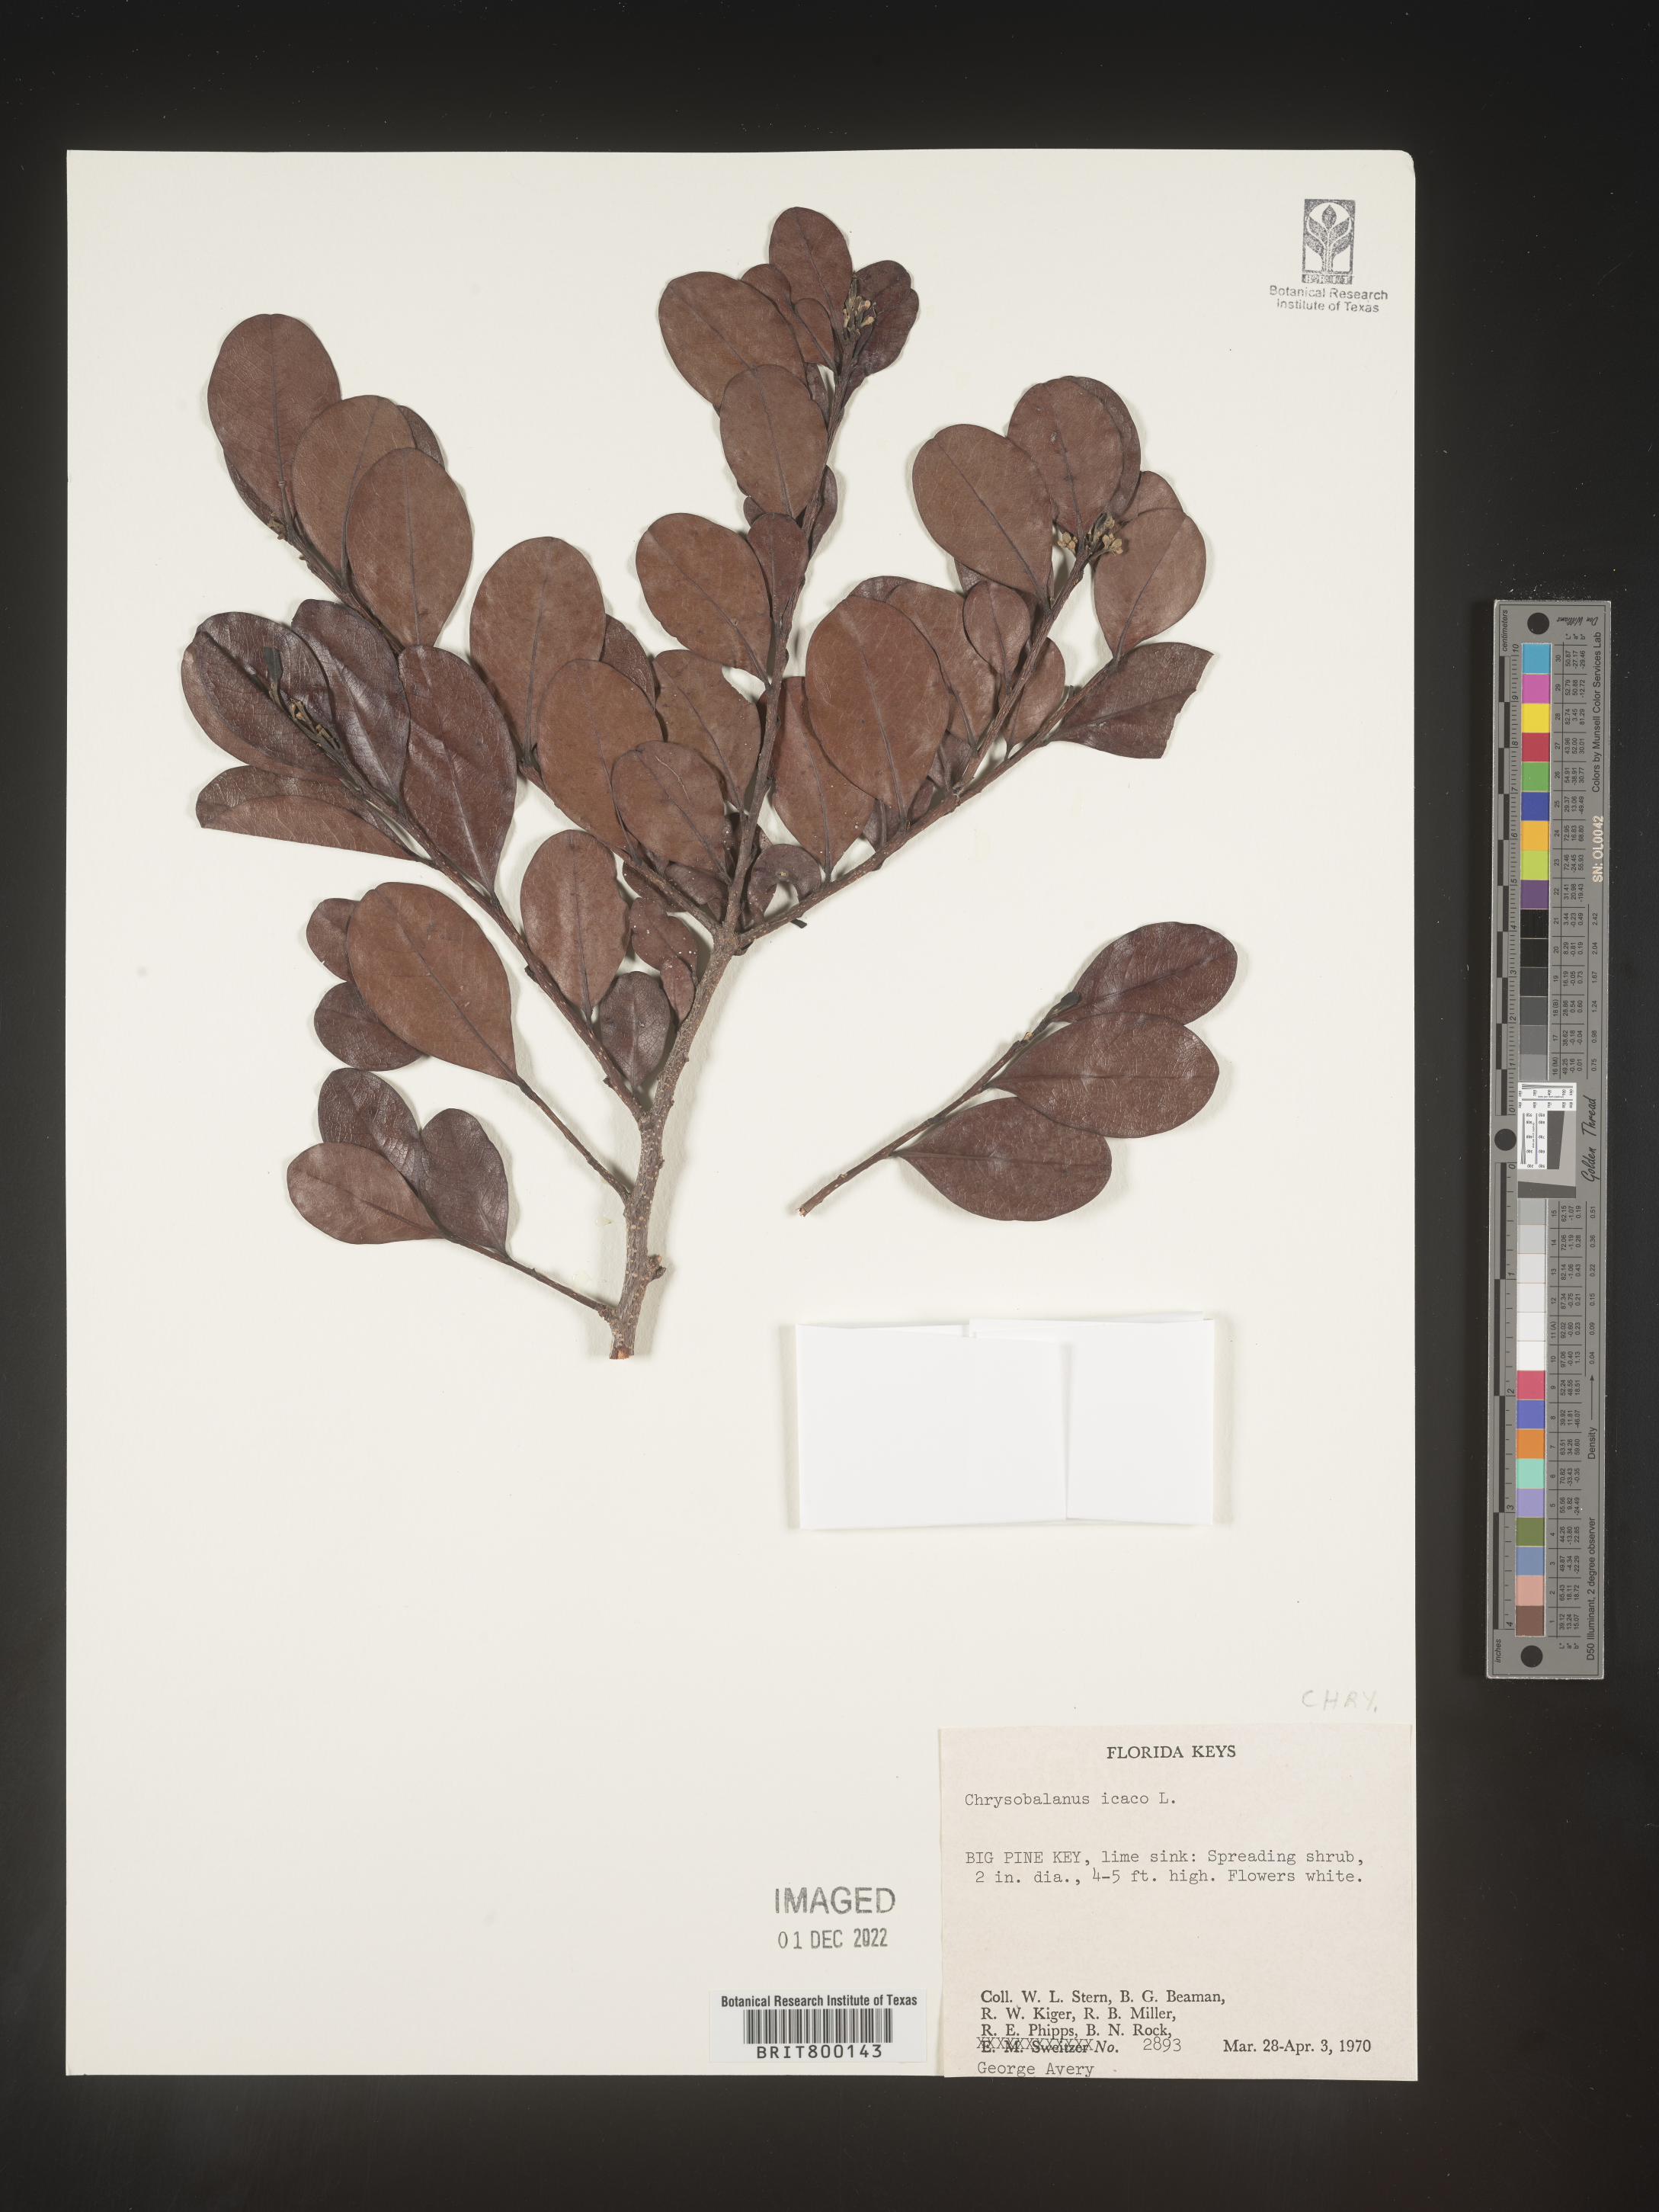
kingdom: Plantae
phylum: Tracheophyta
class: Magnoliopsida
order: Malpighiales
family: Chrysobalanaceae
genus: Chrysobalanus
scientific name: Chrysobalanus icaco
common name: Coco plum
